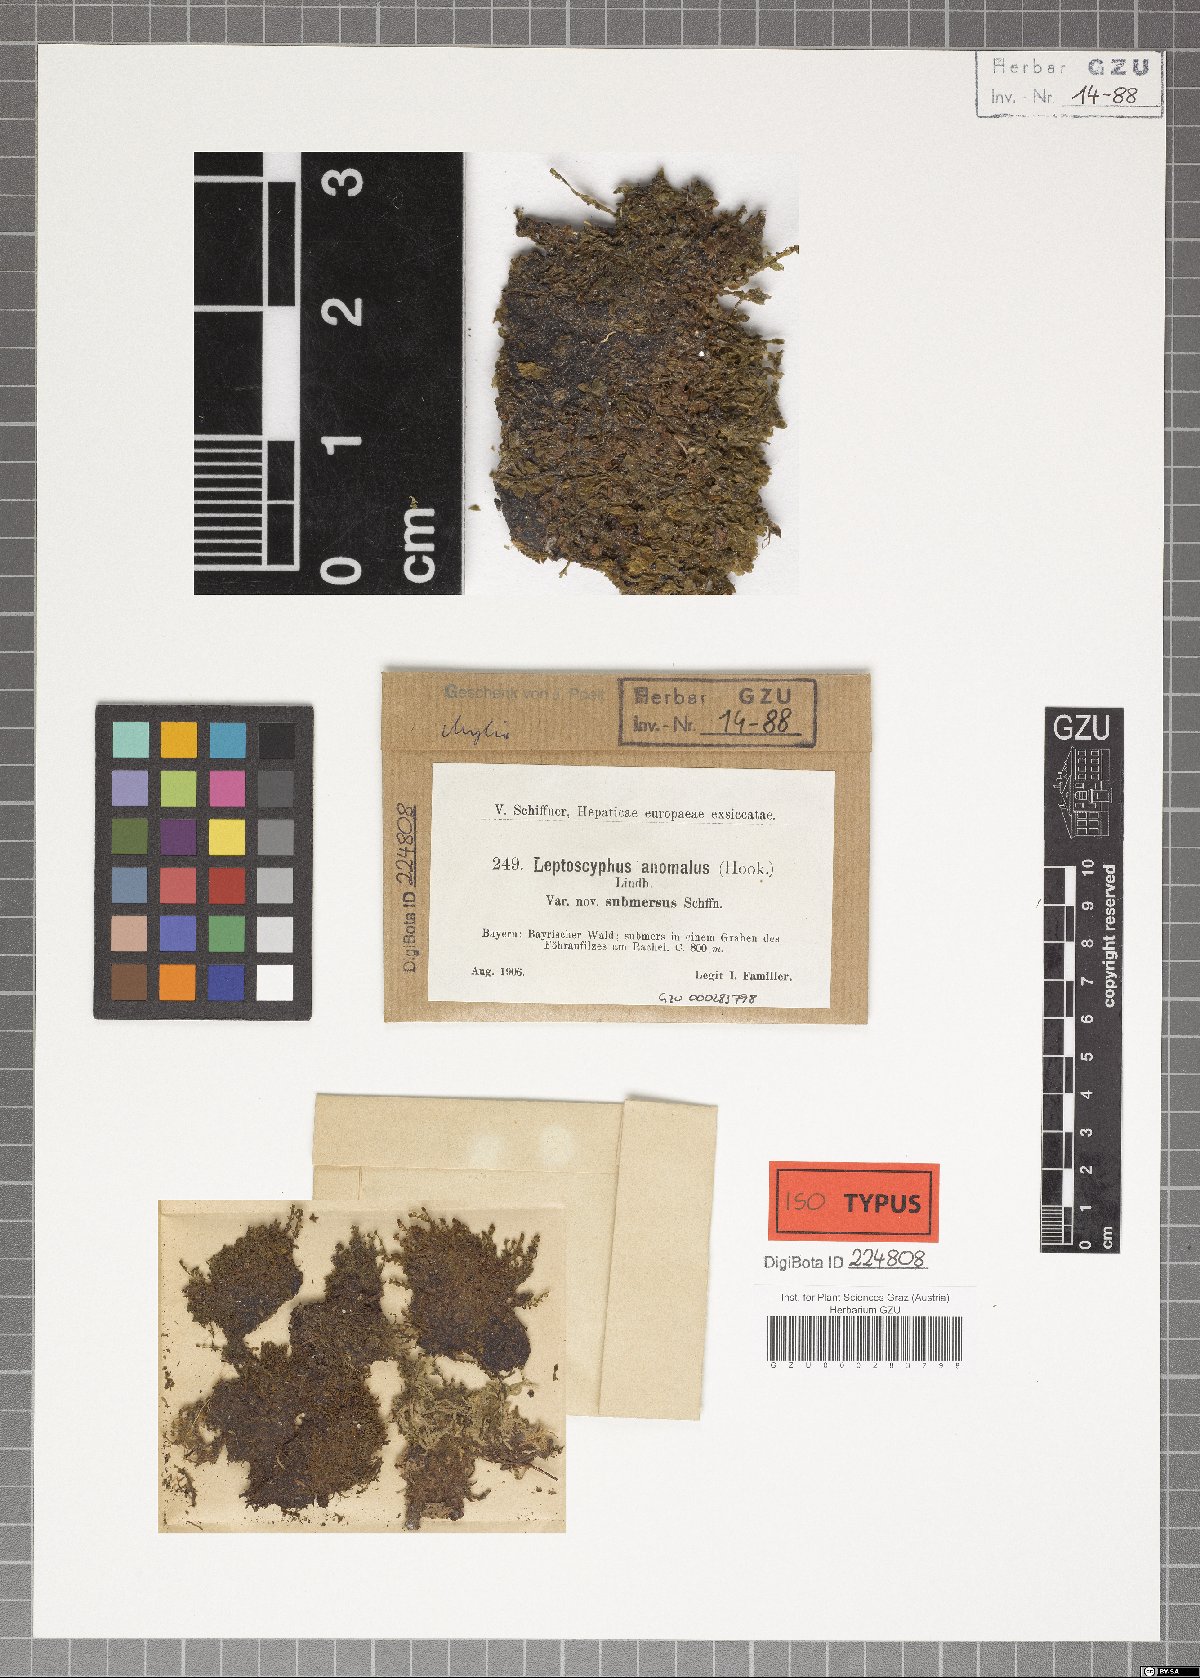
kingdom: Plantae
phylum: Marchantiophyta
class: Jungermanniopsida
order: Jungermanniales
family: Myliaceae
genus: Mylia
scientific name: Mylia anomala
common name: Anomalous flapwort
